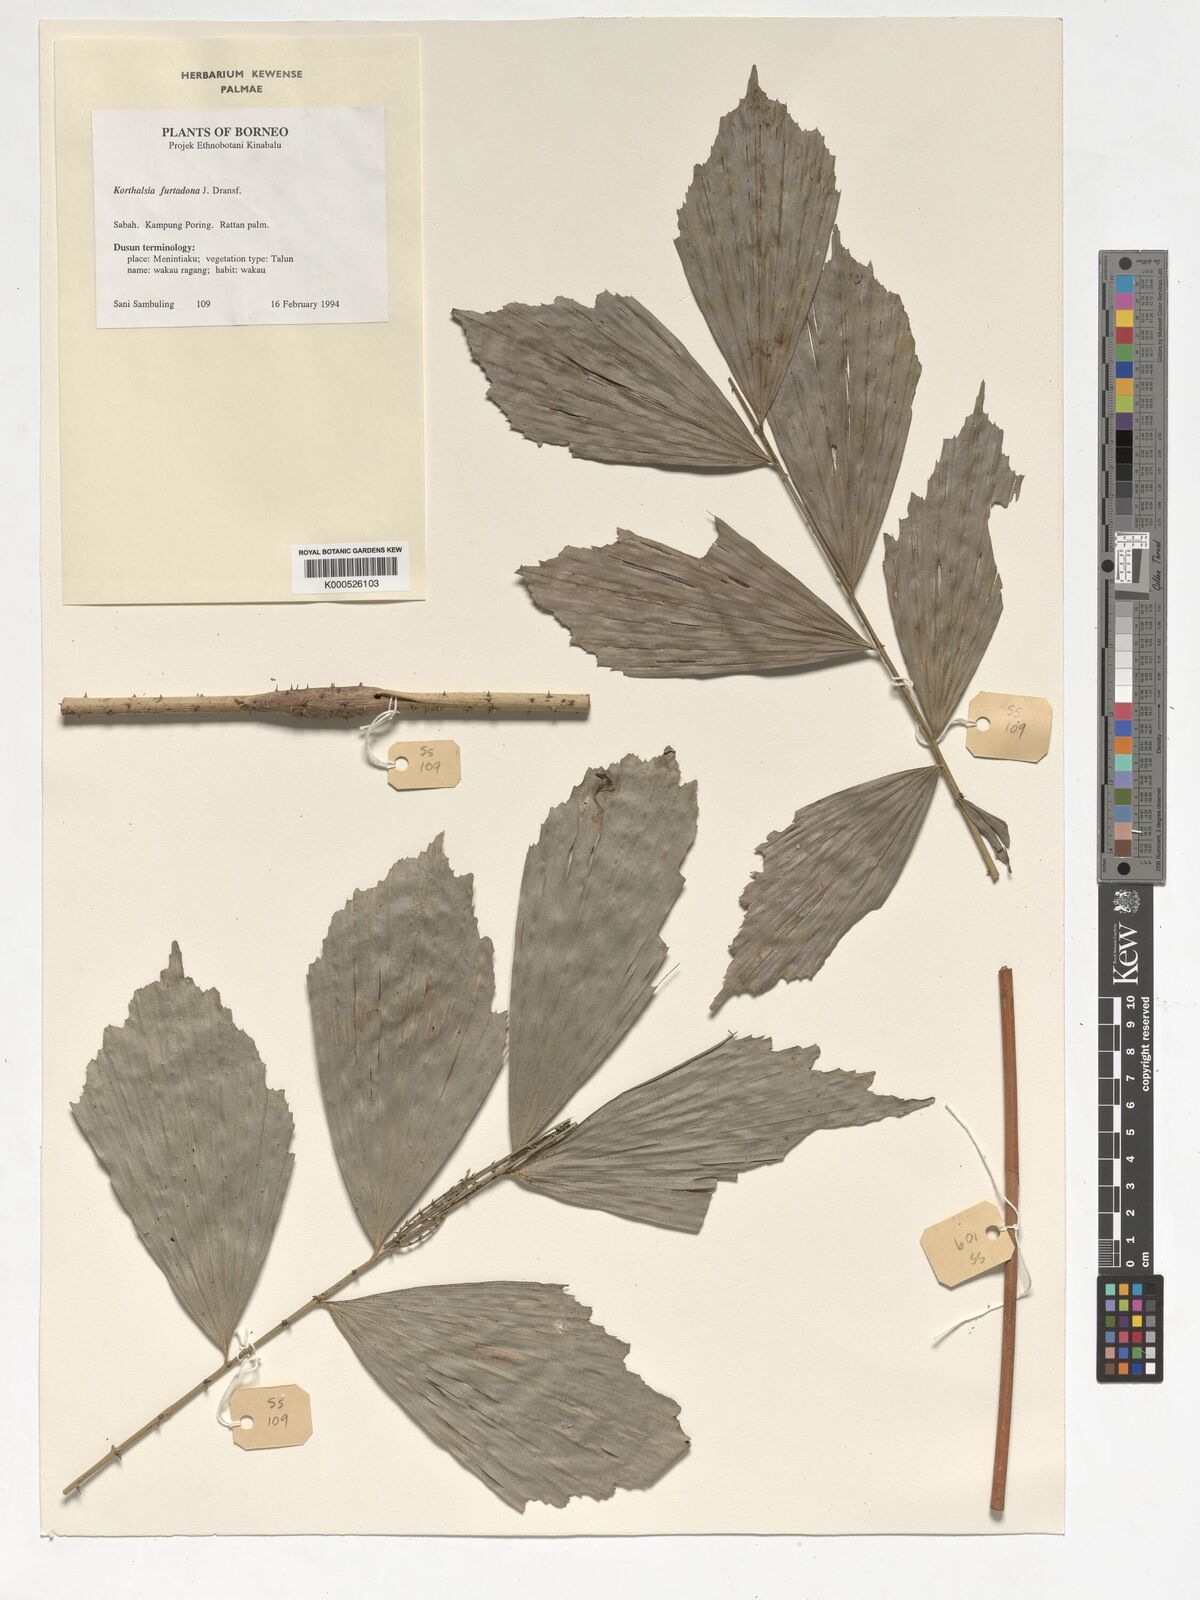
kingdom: Plantae
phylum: Tracheophyta
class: Liliopsida
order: Arecales
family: Arecaceae
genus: Korthalsia
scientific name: Korthalsia furtadoana
